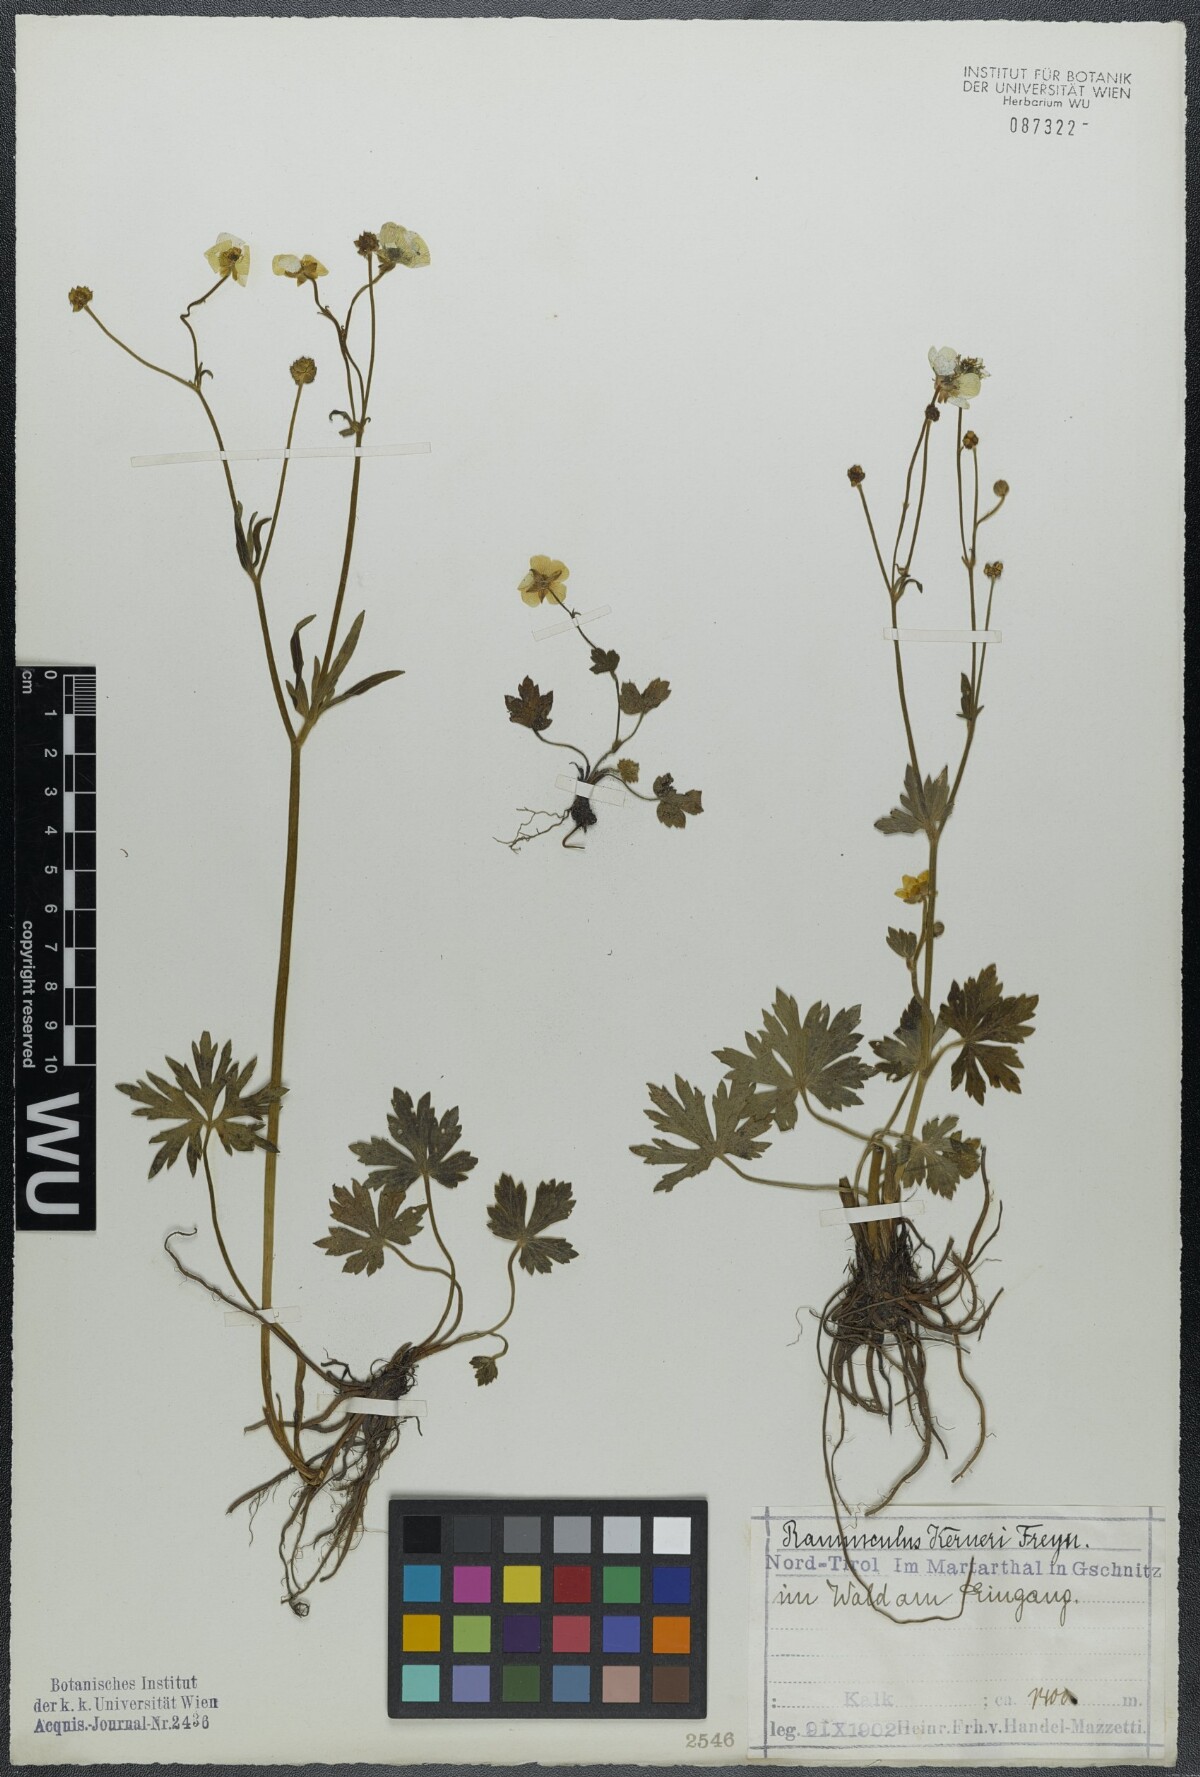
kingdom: Plantae
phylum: Tracheophyta
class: Magnoliopsida
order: Ranunculales
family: Ranunculaceae
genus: Ranunculus
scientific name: Ranunculus acris
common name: Meadow buttercup
